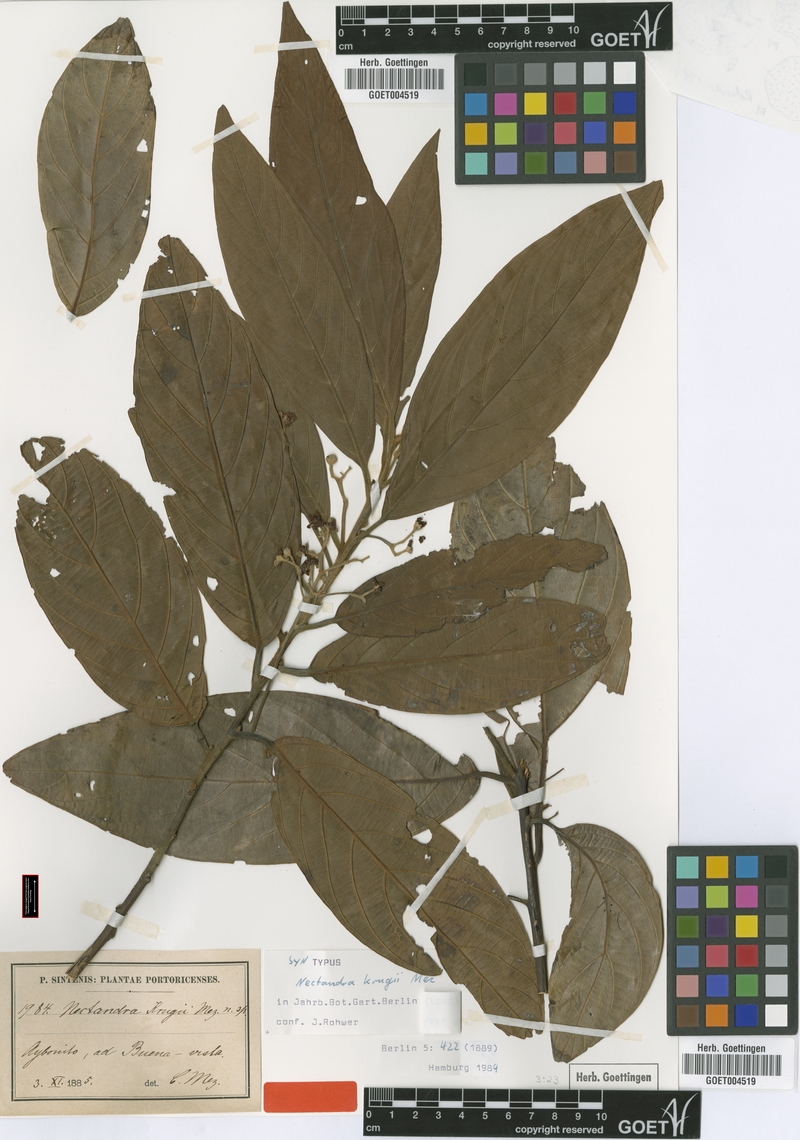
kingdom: Plantae
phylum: Tracheophyta
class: Magnoliopsida
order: Laurales
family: Lauraceae
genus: Nectandra
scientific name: Nectandra krugii
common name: Black sweetwood
